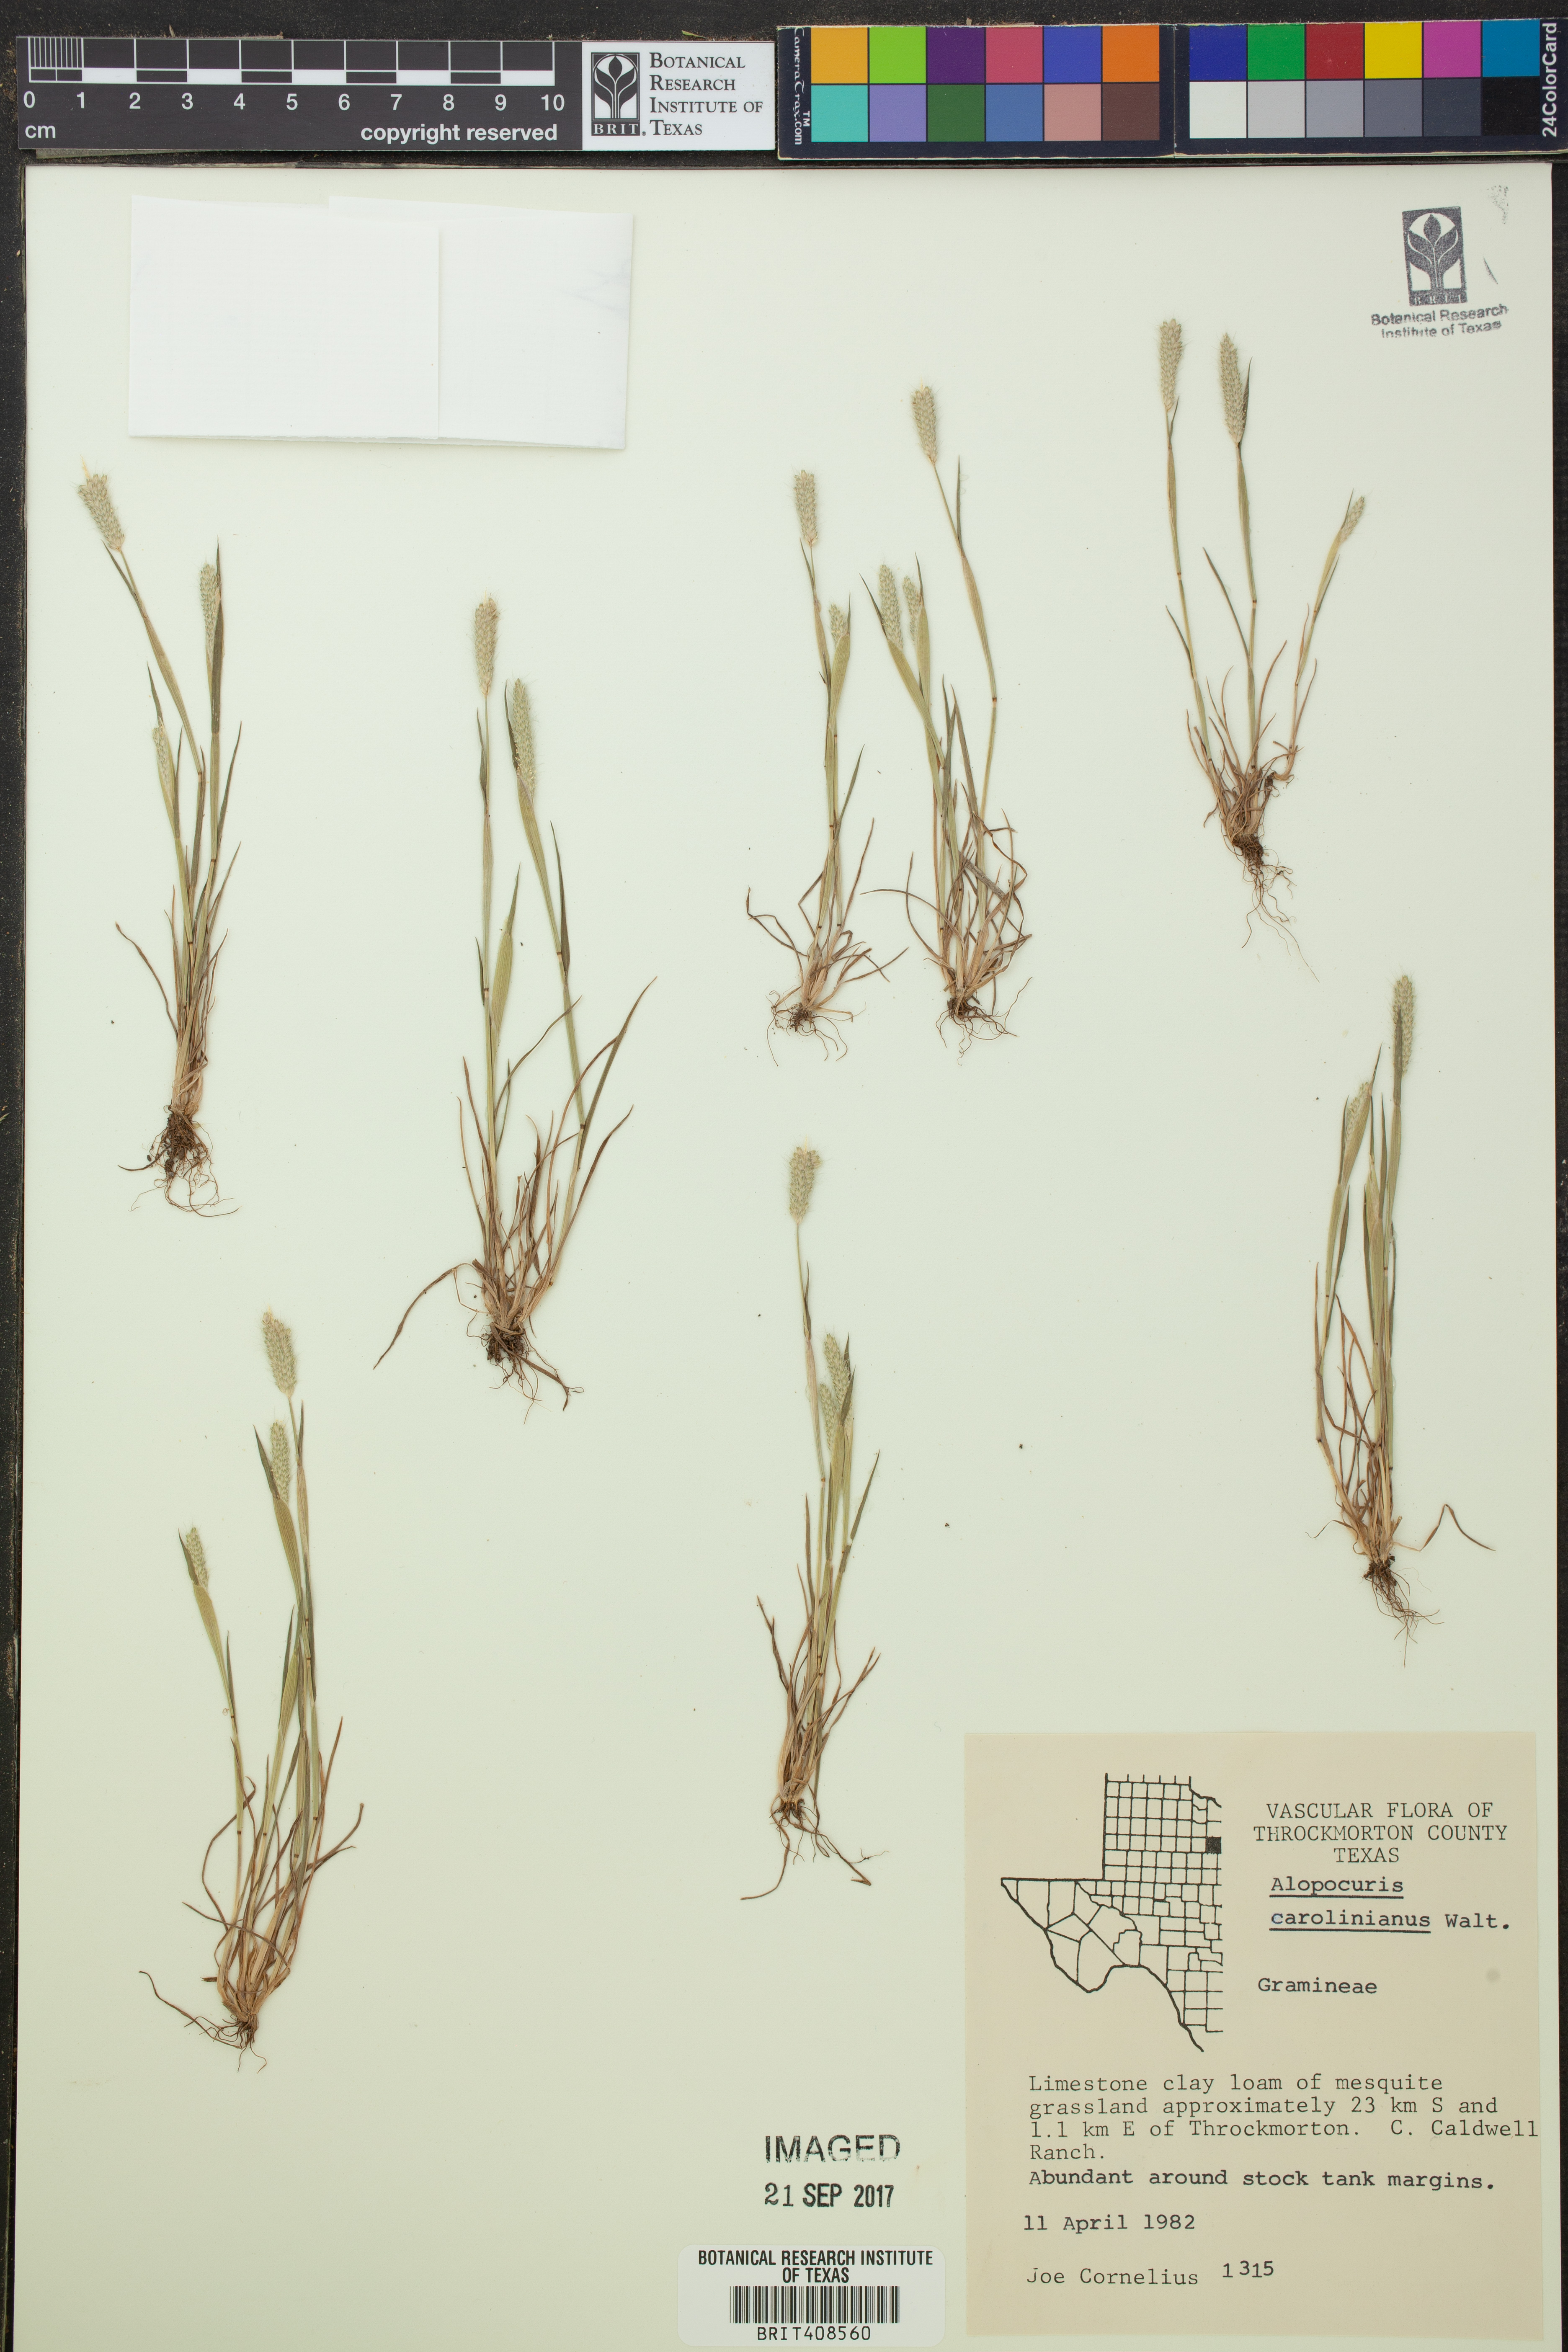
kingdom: Plantae
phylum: Tracheophyta
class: Liliopsida
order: Poales
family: Poaceae
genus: Alopecurus
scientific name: Alopecurus carolinianus
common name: Tufted foxtail
